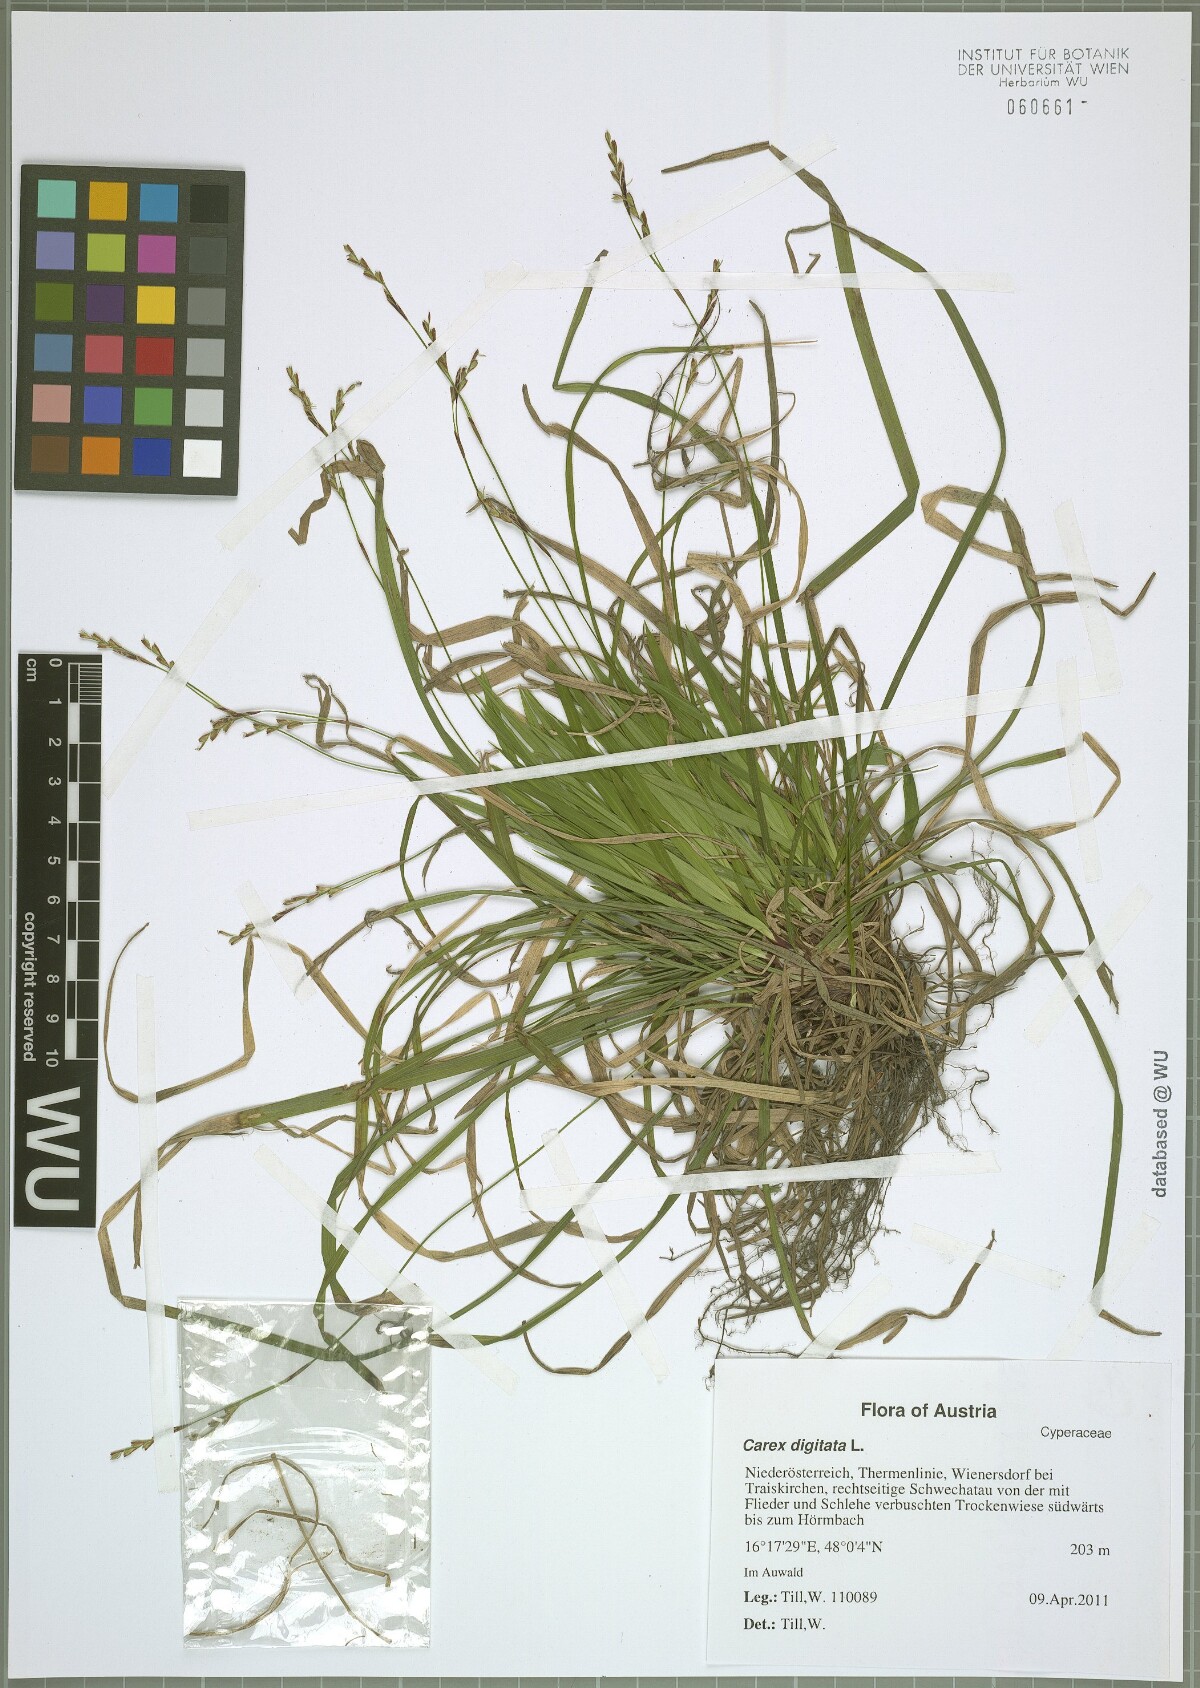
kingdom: Plantae
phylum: Tracheophyta
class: Liliopsida
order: Poales
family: Cyperaceae
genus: Carex
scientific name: Carex digitata
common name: Fingered sedge
